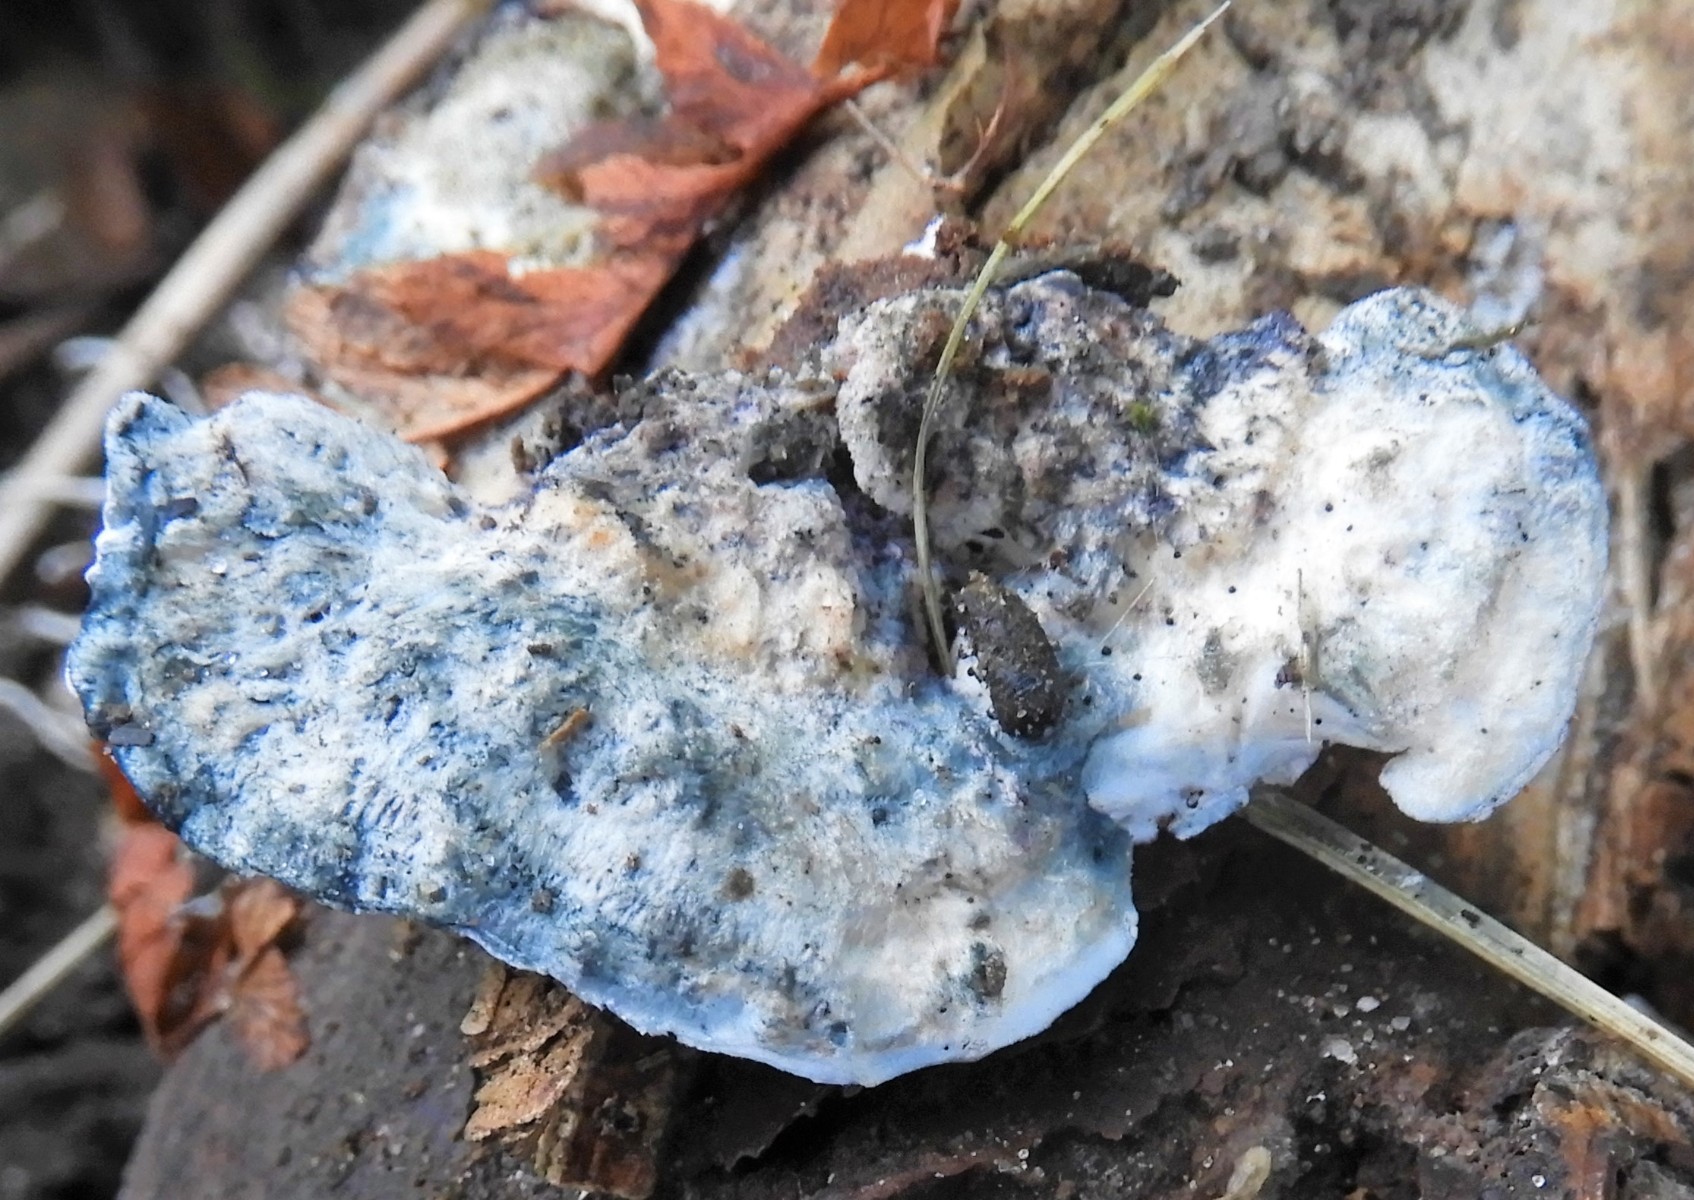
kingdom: Fungi
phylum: Basidiomycota
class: Agaricomycetes
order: Polyporales
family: Polyporaceae
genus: Cyanosporus
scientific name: Cyanosporus caesius
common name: blålig kødporesvamp
